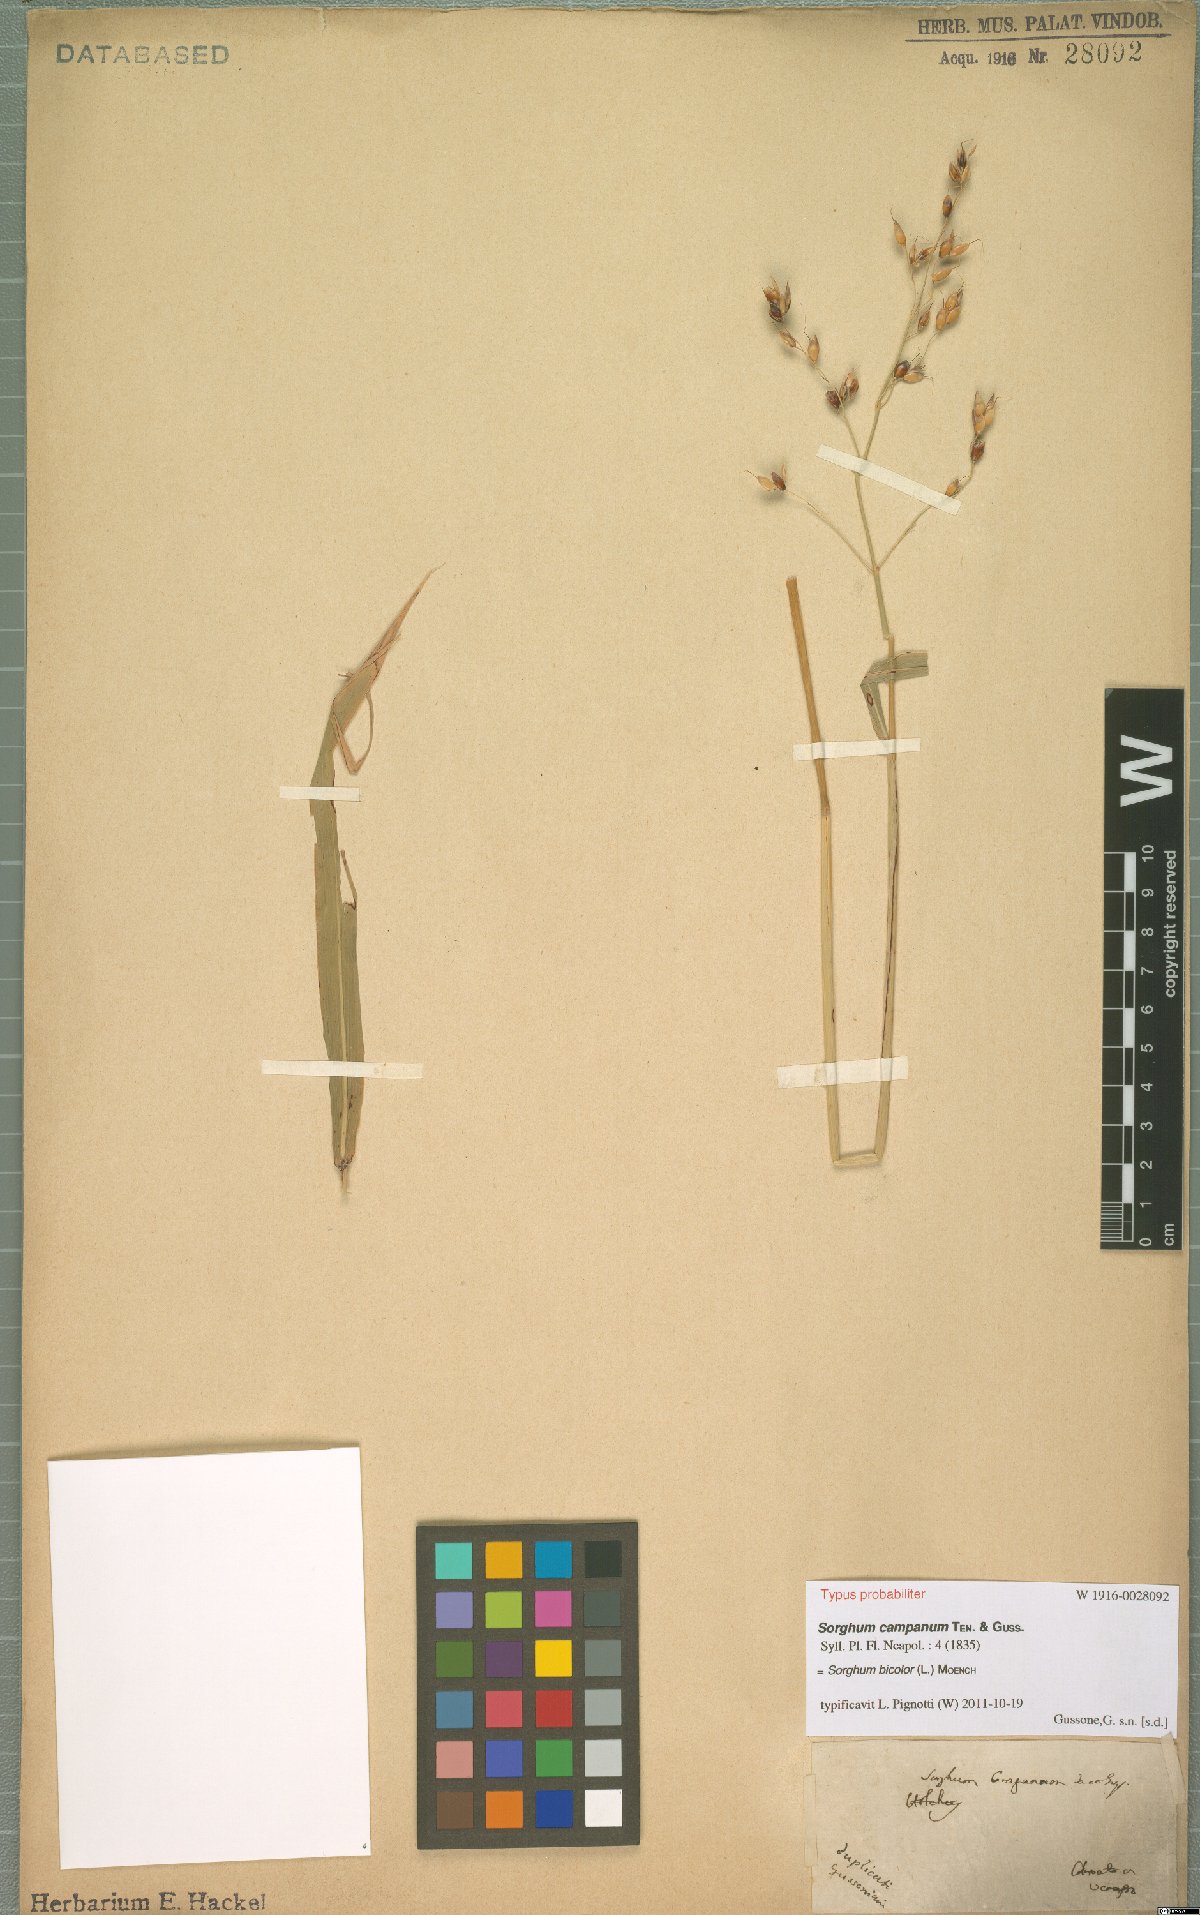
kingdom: Plantae
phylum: Tracheophyta
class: Liliopsida
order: Poales
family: Poaceae
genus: Sorghum
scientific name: Sorghum bicolor
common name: Sorghum
